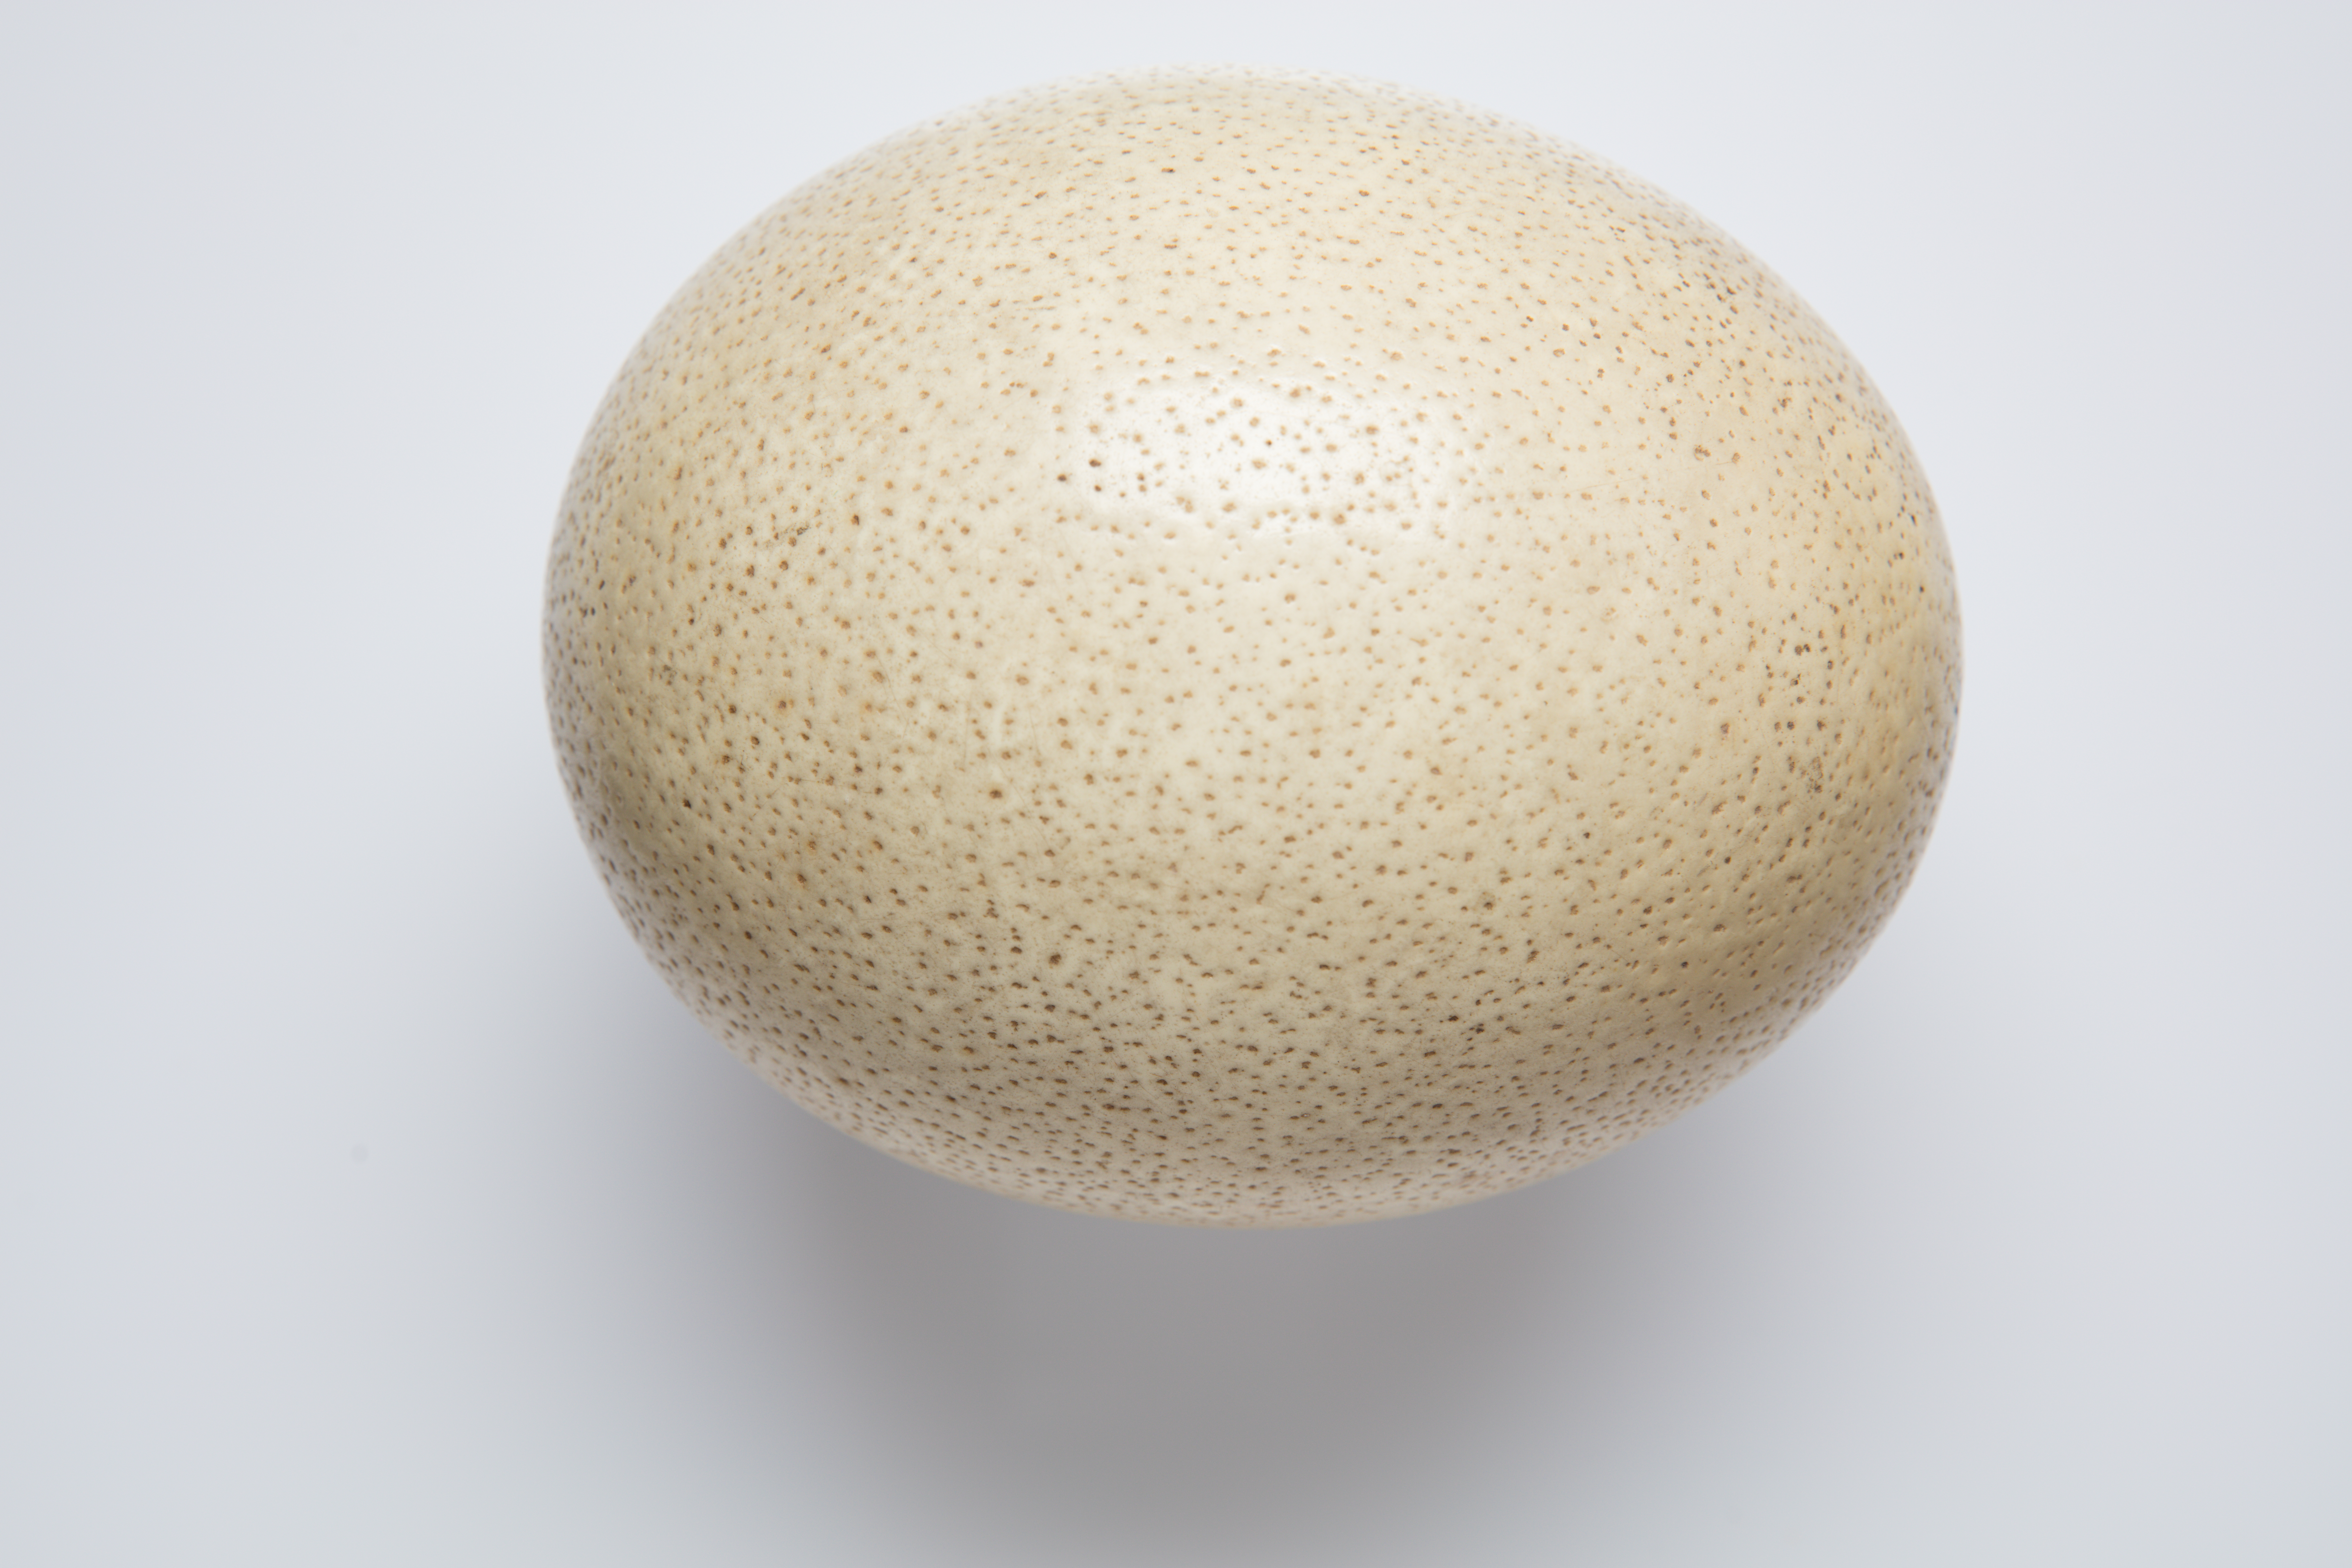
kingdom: Animalia
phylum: Chordata
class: Aves
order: Struthioniformes
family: Struthionidae
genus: Struthio
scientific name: Struthio camelus
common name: Common ostrich
